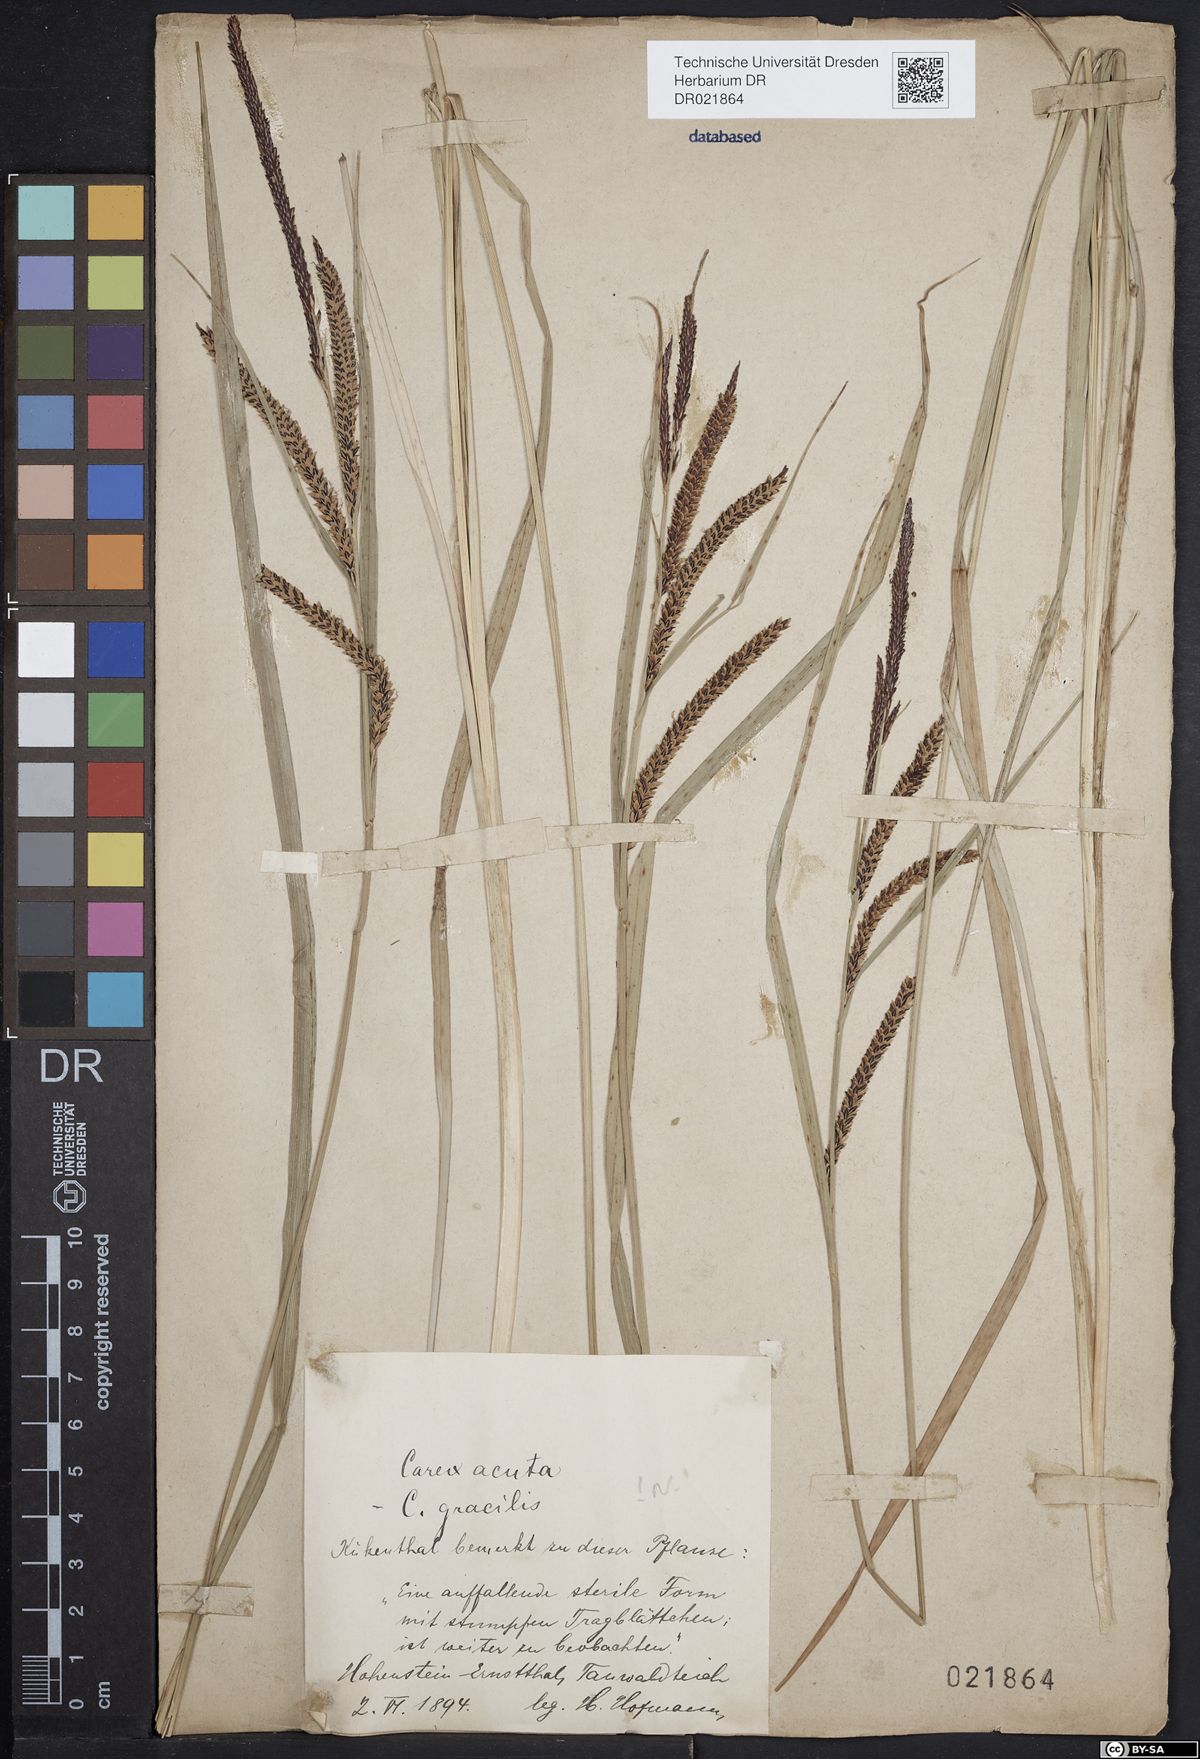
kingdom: Plantae
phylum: Tracheophyta
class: Liliopsida
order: Poales
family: Cyperaceae
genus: Carex
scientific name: Carex acuta
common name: Slender tufted-sedge
